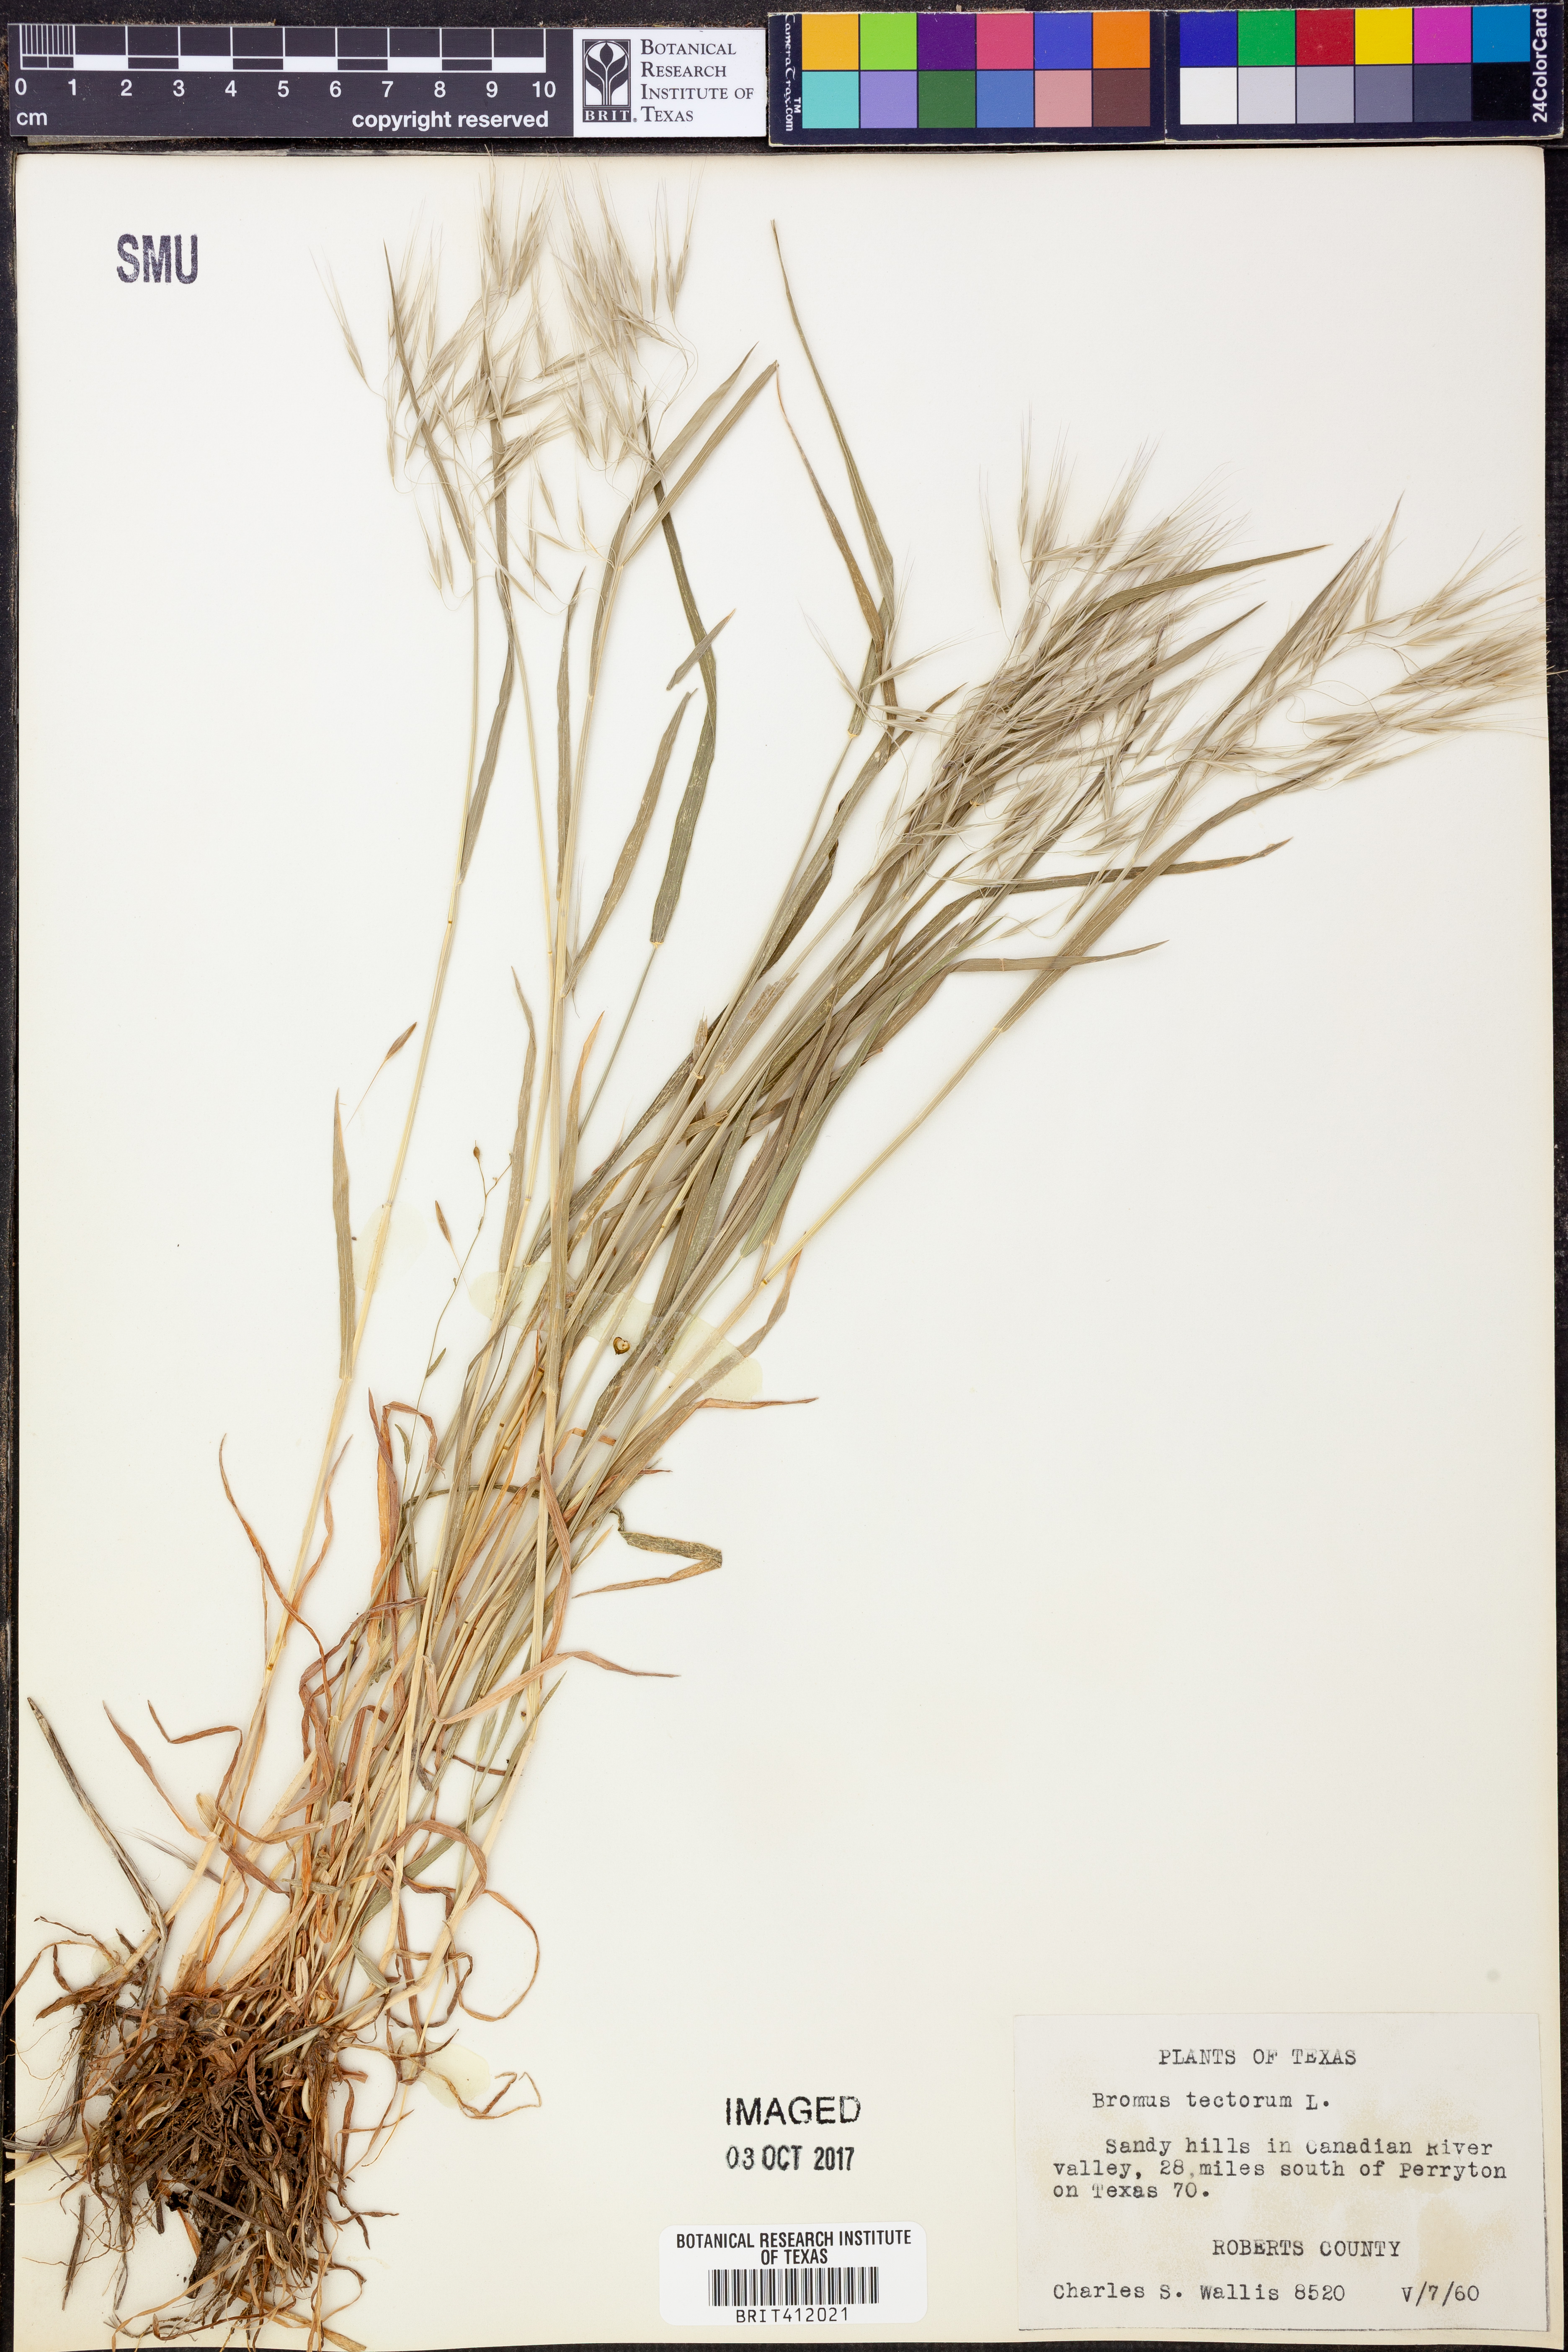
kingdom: Plantae
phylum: Tracheophyta
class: Liliopsida
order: Poales
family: Poaceae
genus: Bromus
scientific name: Bromus tectorum
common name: Cheatgrass
